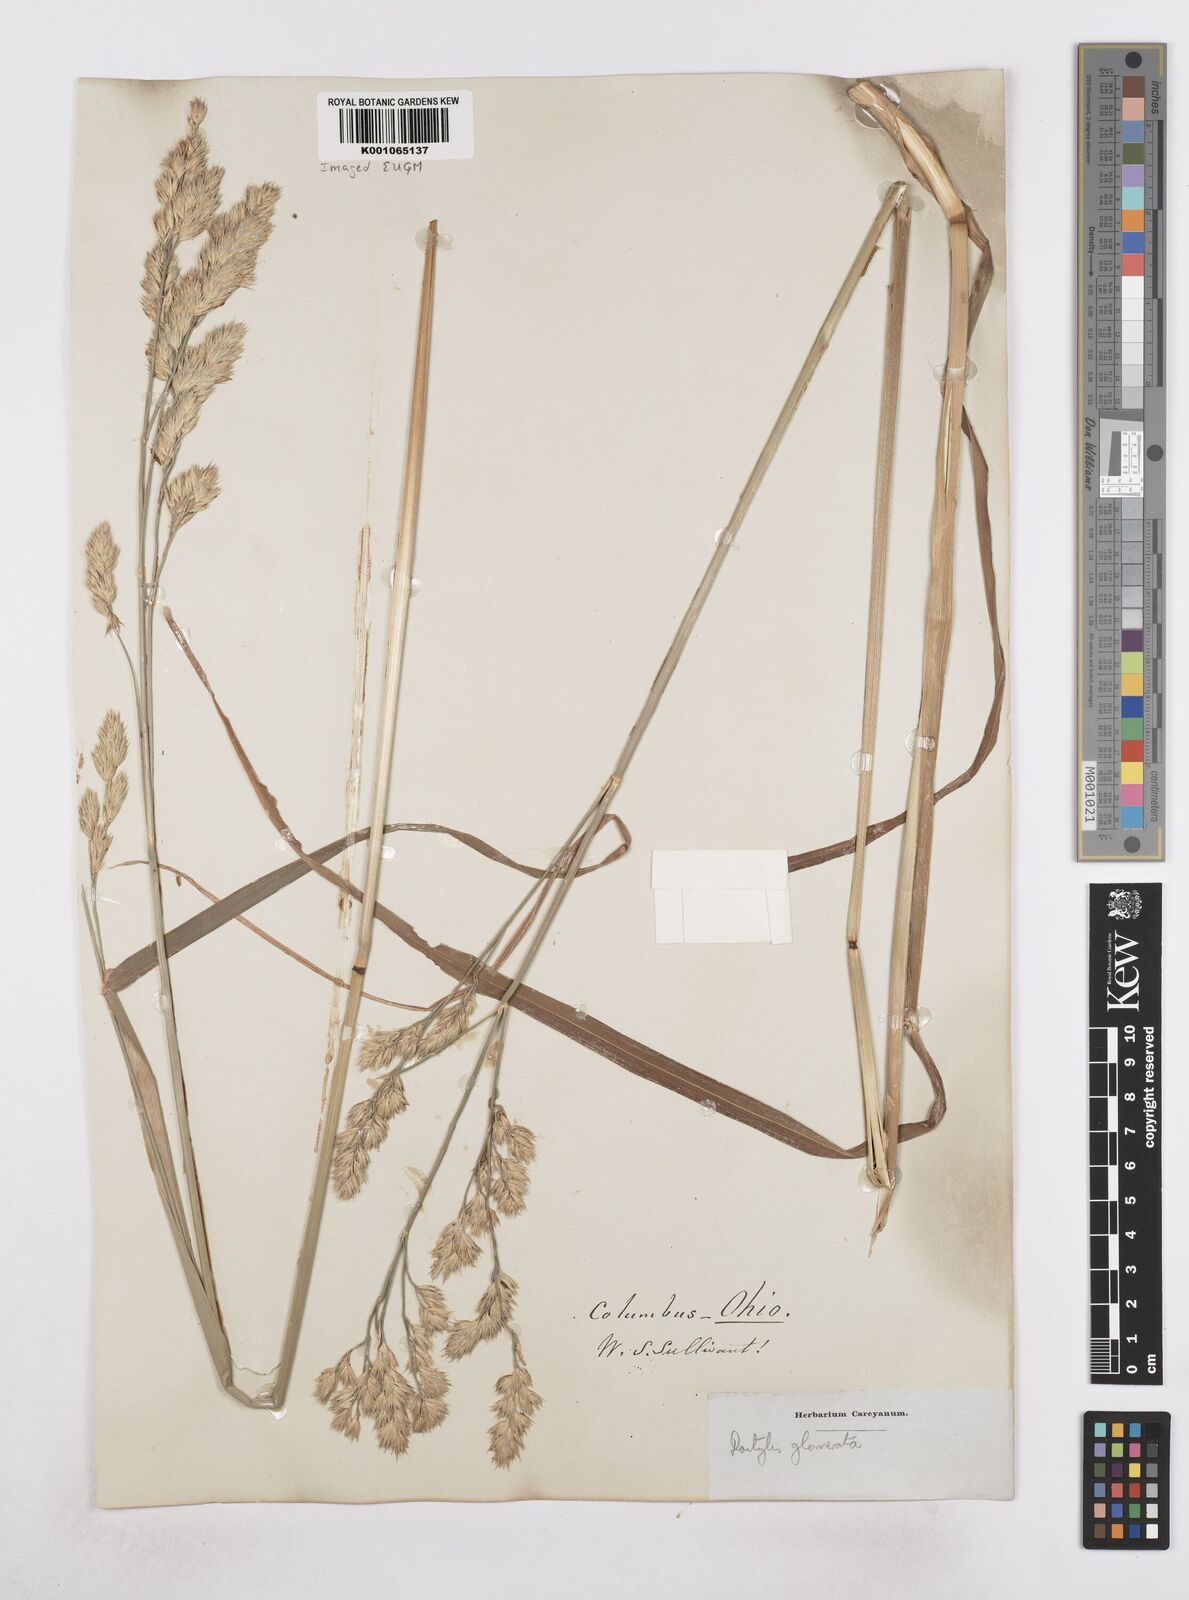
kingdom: Plantae
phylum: Tracheophyta
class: Liliopsida
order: Poales
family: Poaceae
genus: Dactylis
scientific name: Dactylis glomerata
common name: Orchardgrass
